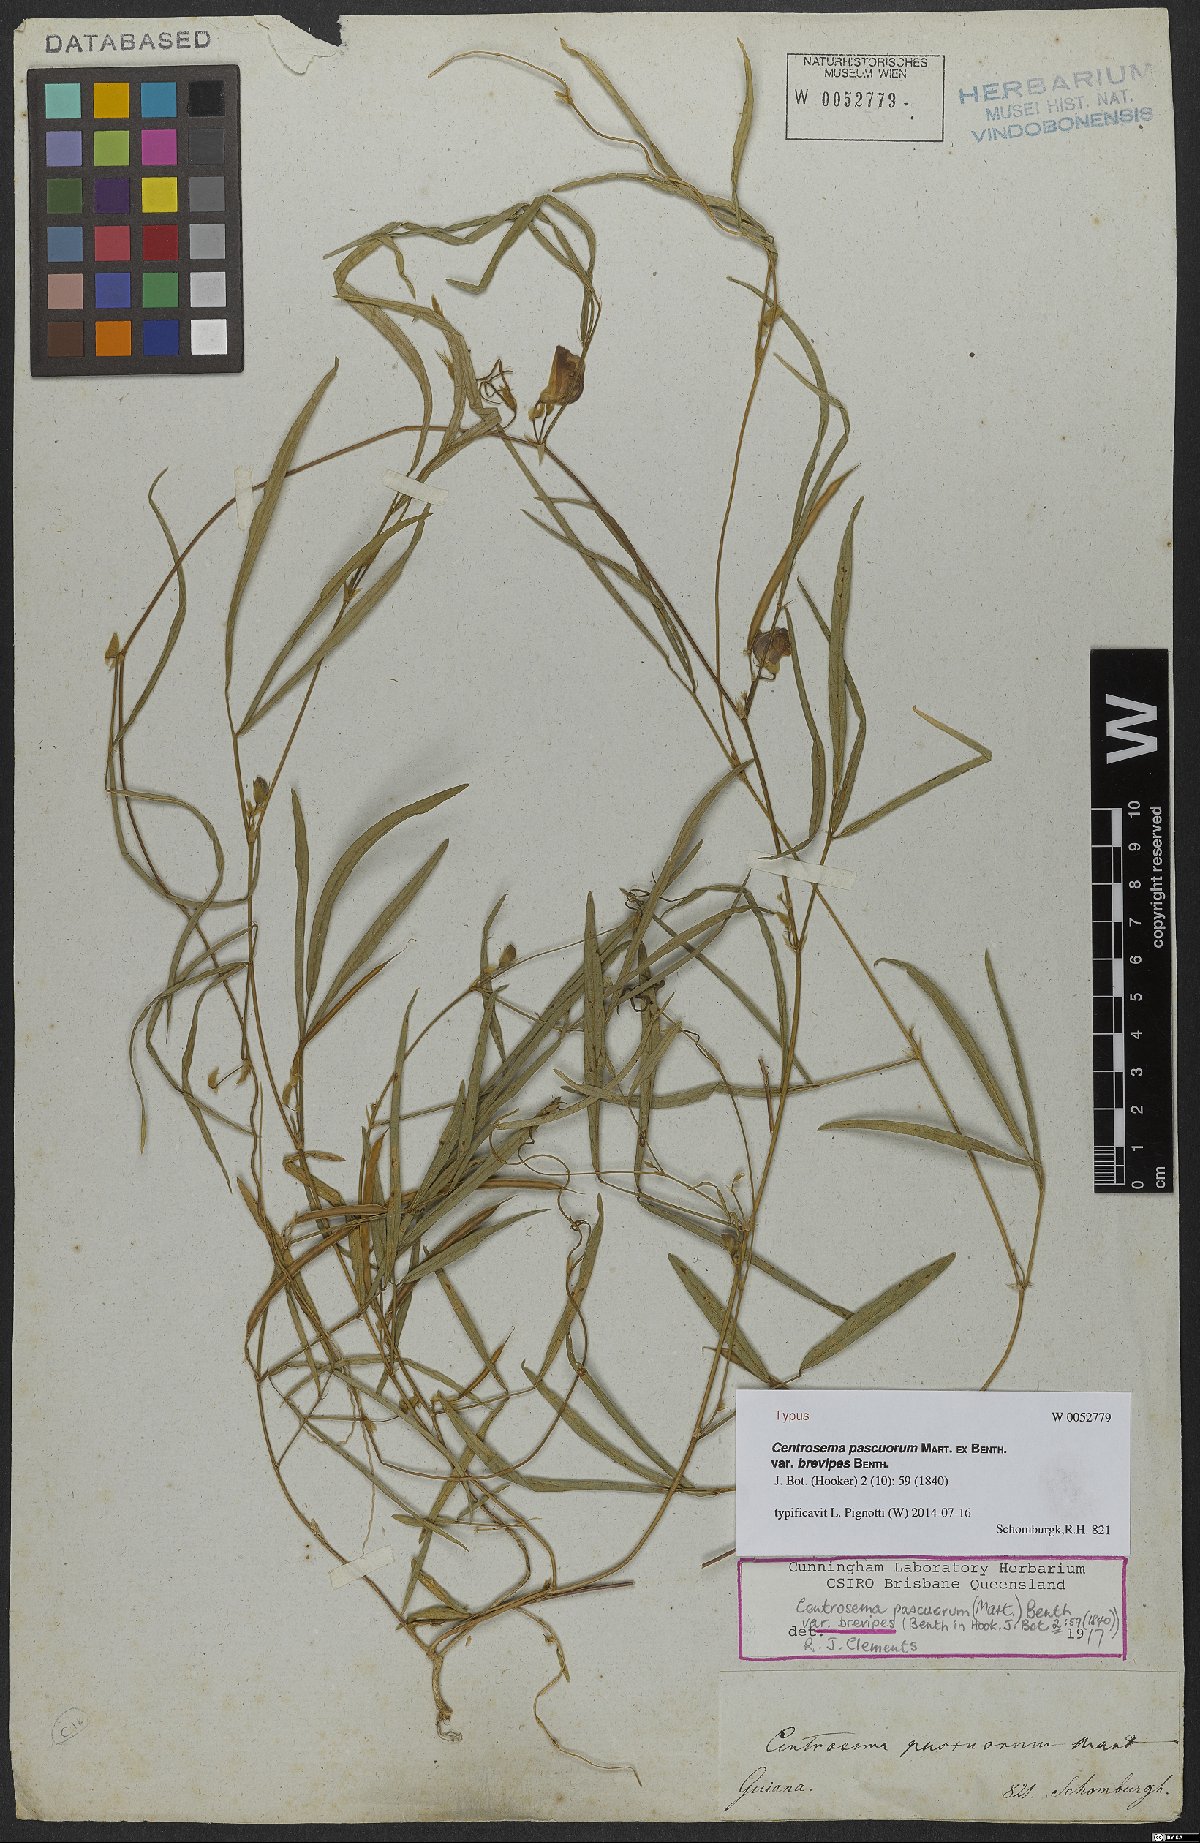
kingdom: Plantae
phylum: Tracheophyta
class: Magnoliopsida
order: Fabales
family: Fabaceae
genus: Centrosema
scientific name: Centrosema pascuorum
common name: Centurion
